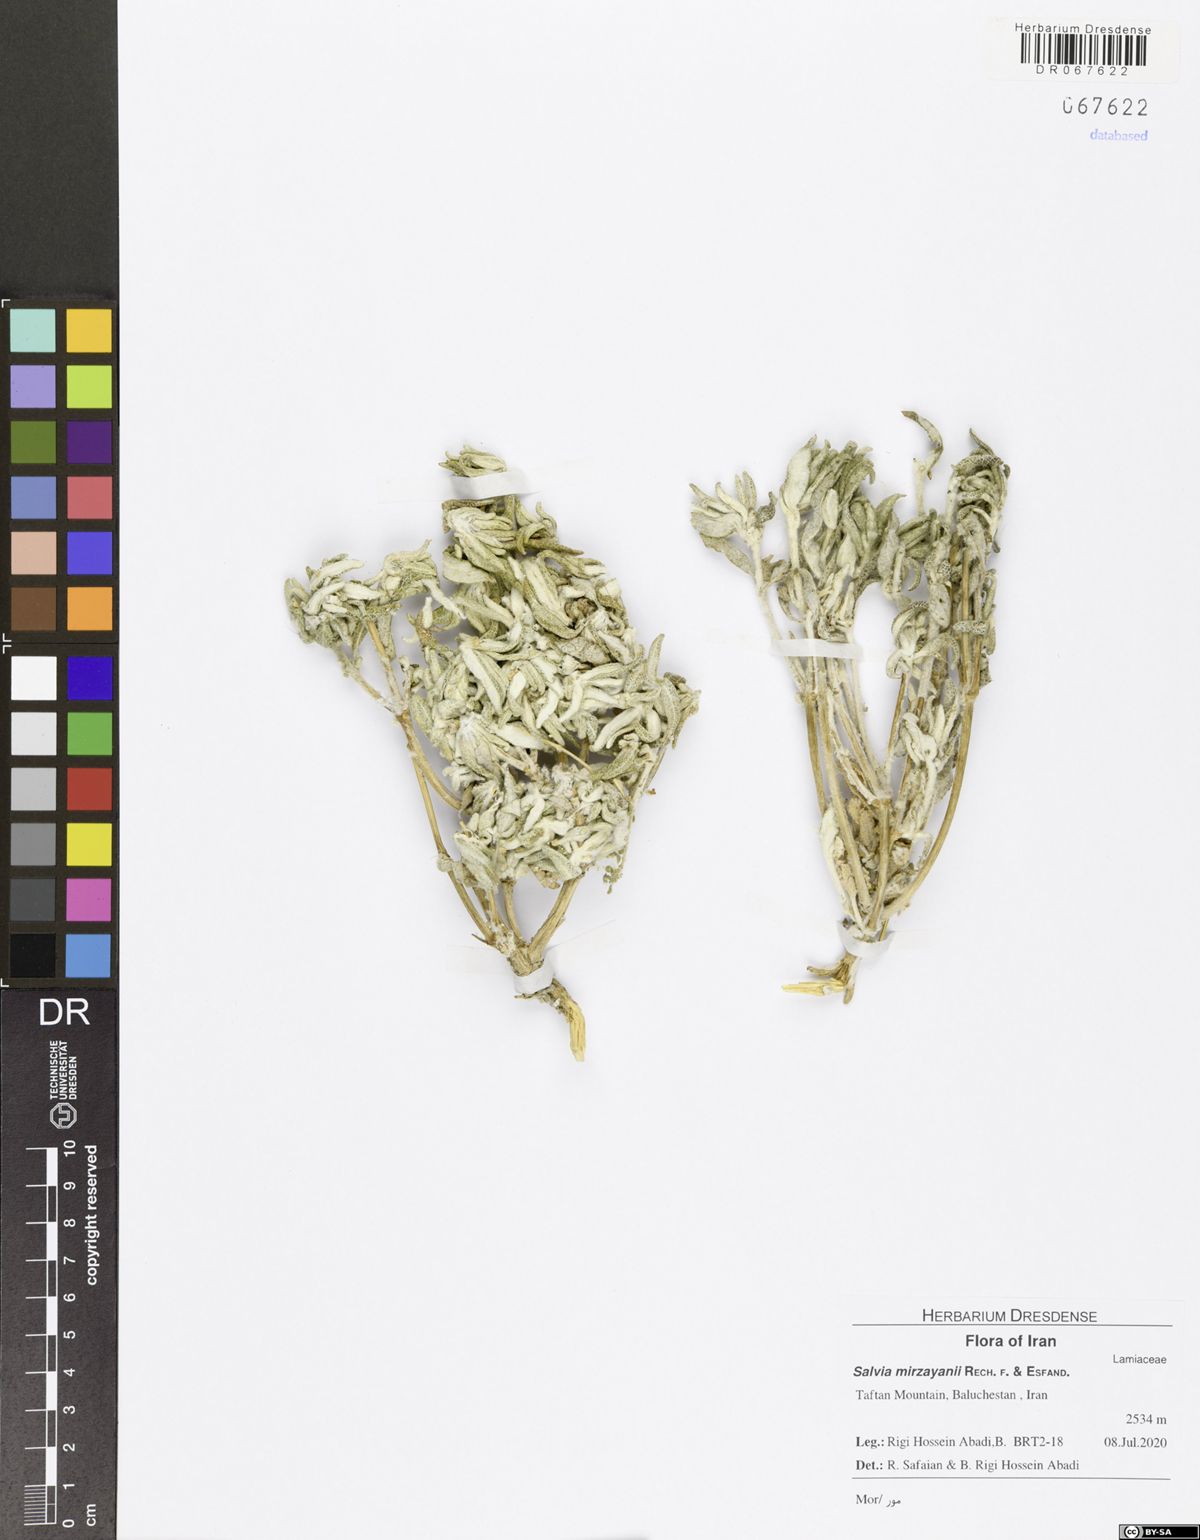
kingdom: Plantae
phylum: Tracheophyta
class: Magnoliopsida
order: Lamiales
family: Lamiaceae
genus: Salvia
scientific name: Salvia mirzayanii
